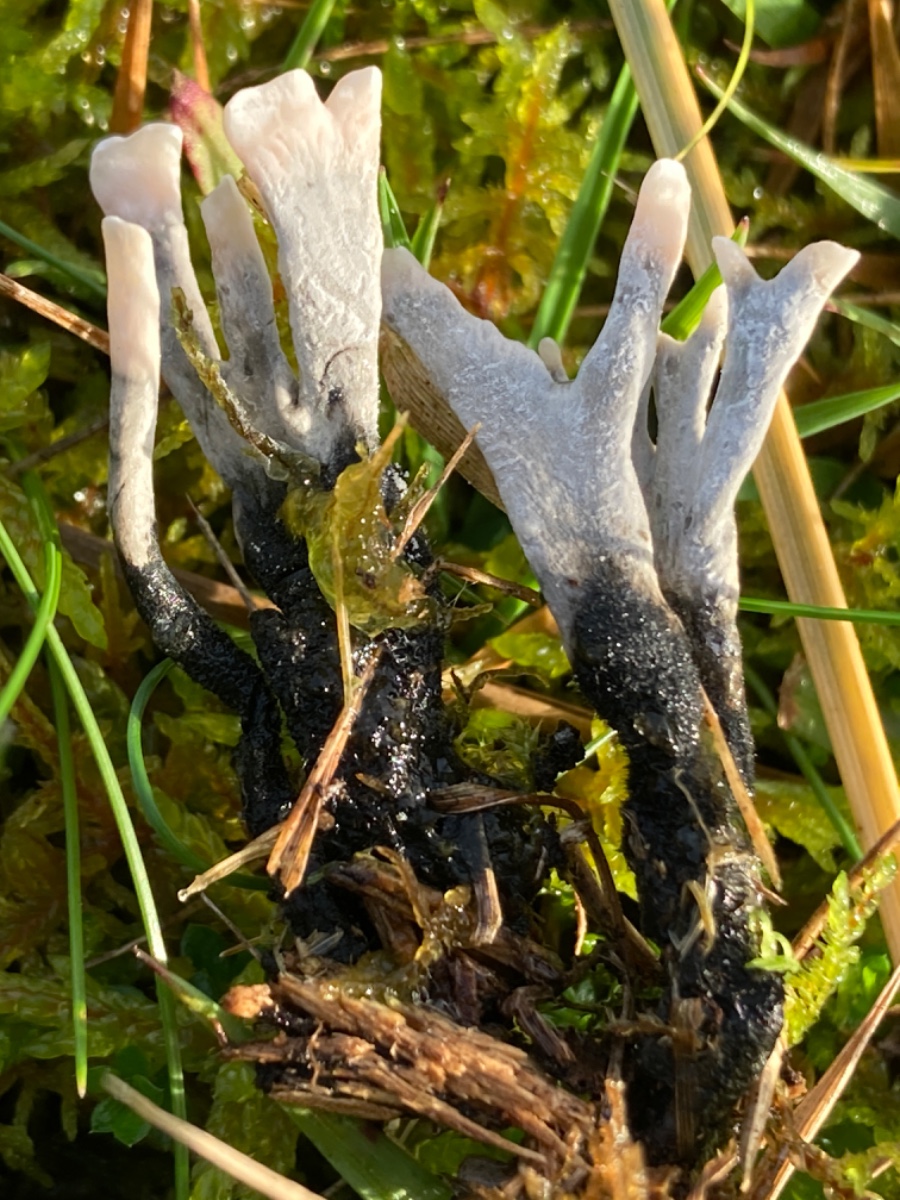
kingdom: Fungi
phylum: Ascomycota
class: Sordariomycetes
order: Xylariales
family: Xylariaceae
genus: Xylaria
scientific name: Xylaria hypoxylon
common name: grenet stødsvamp
